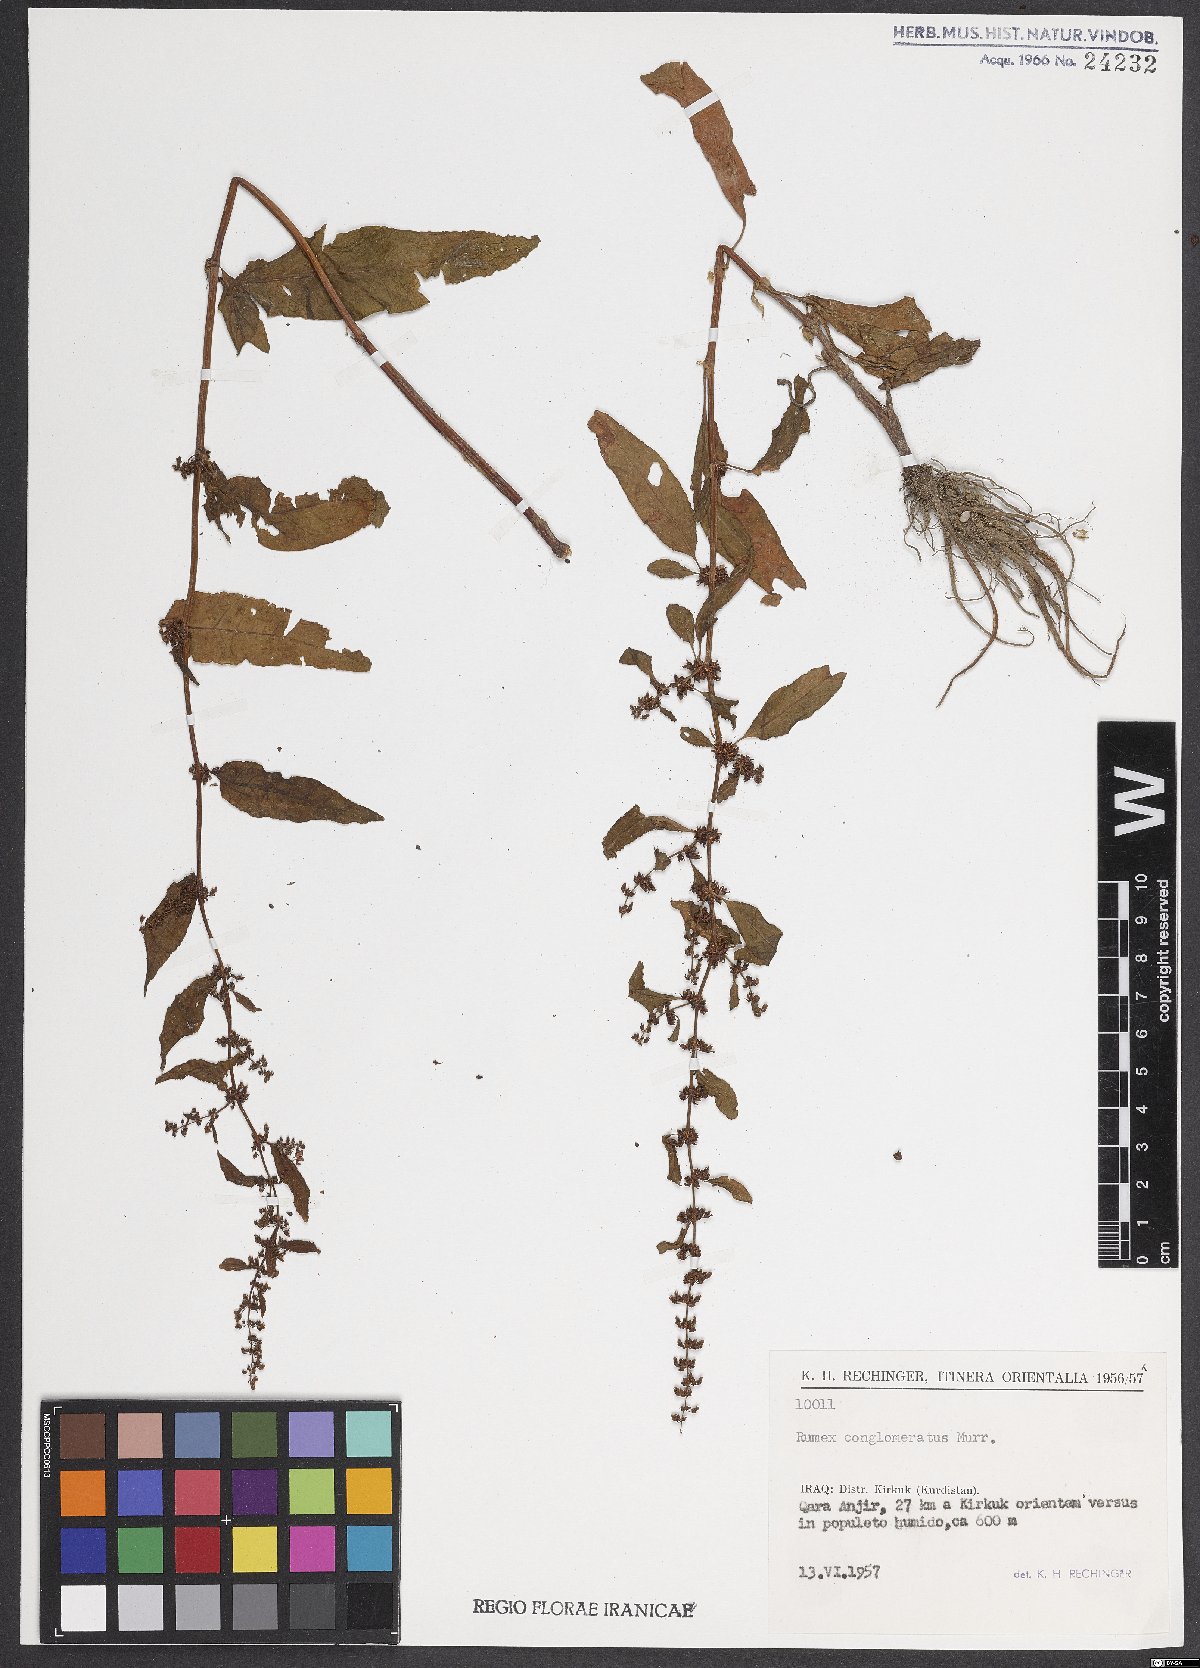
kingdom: Plantae
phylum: Tracheophyta
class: Magnoliopsida
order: Caryophyllales
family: Polygonaceae
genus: Rumex
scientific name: Rumex conglomeratus
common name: Clustered dock
